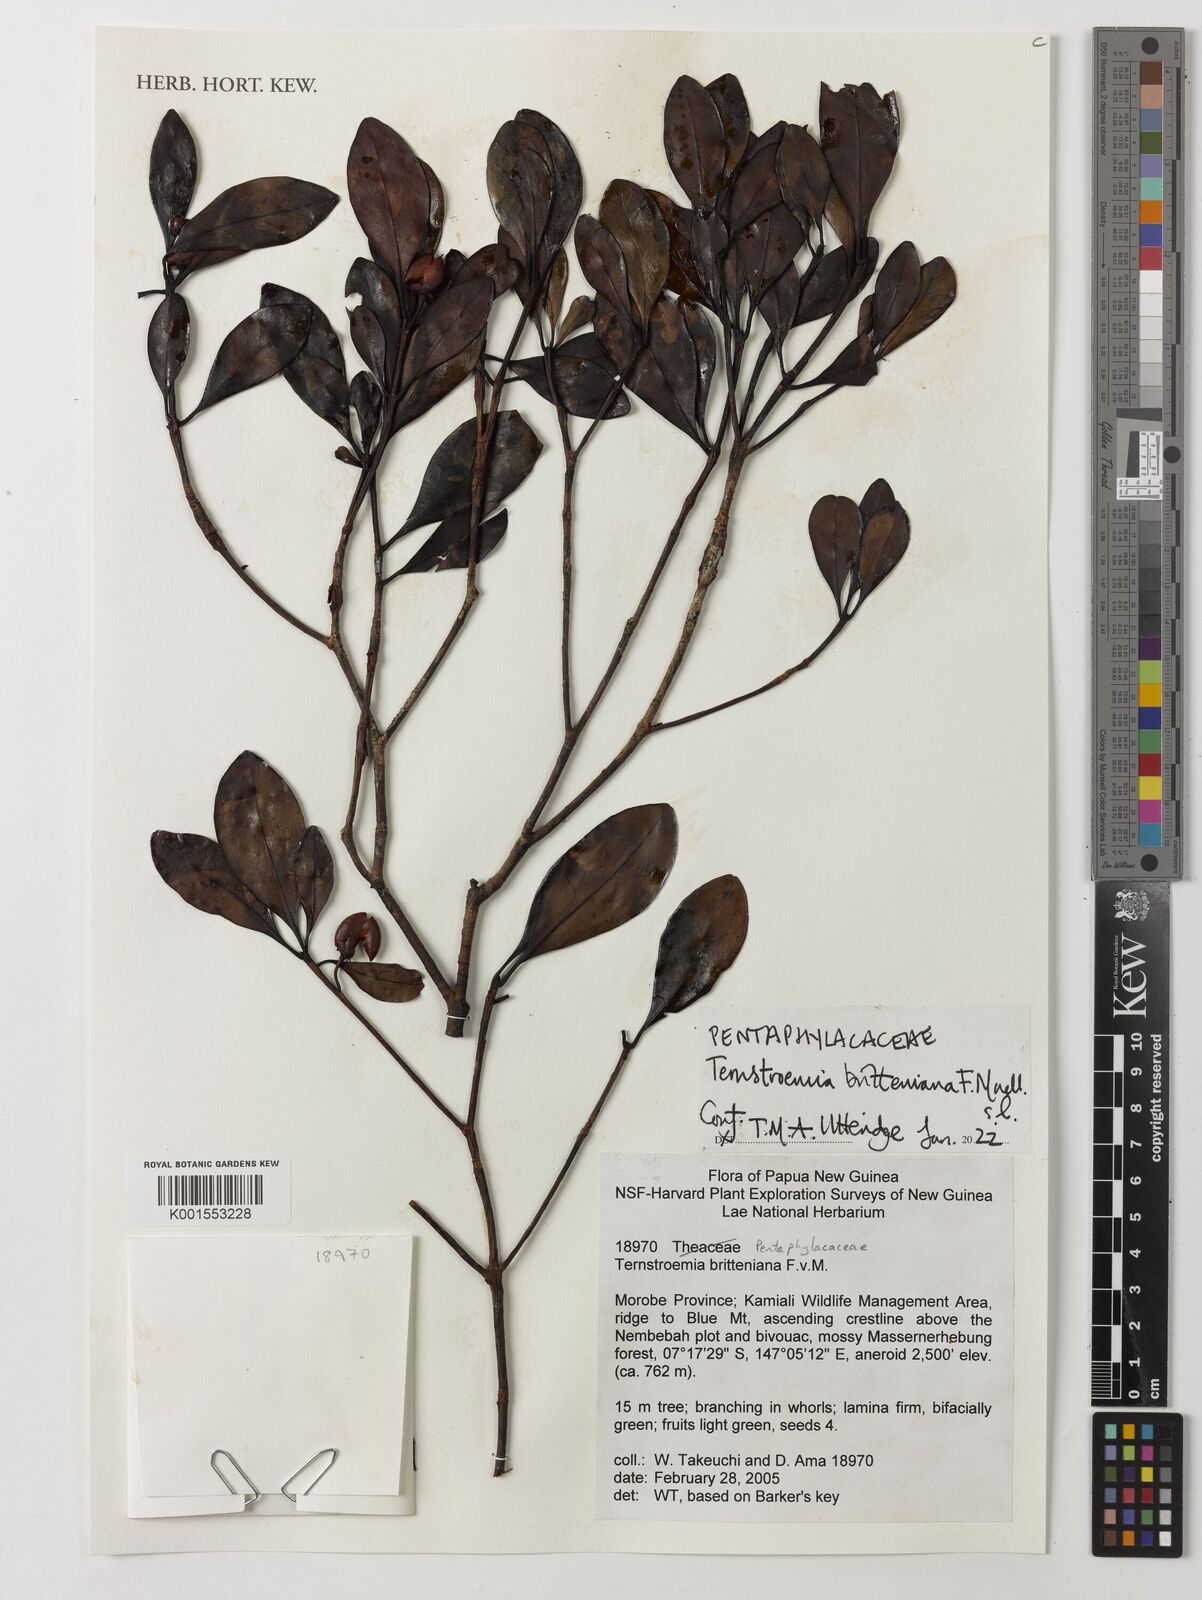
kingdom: Plantae
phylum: Tracheophyta
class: Magnoliopsida
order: Ericales
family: Pentaphylacaceae
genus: Ternstroemia
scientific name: Ternstroemia britteniana
